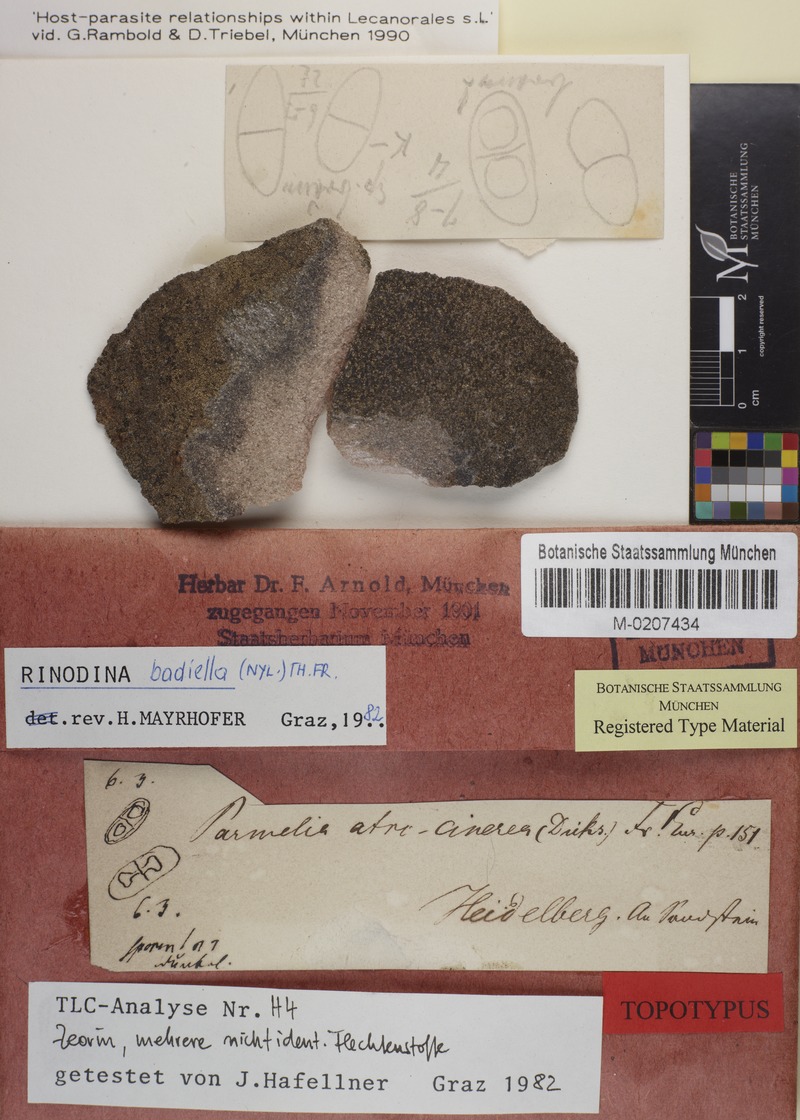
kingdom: Fungi
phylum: Ascomycota
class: Lecanoromycetes
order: Caliciales
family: Physciaceae
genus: Rinodina
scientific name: Rinodina tephraspis
